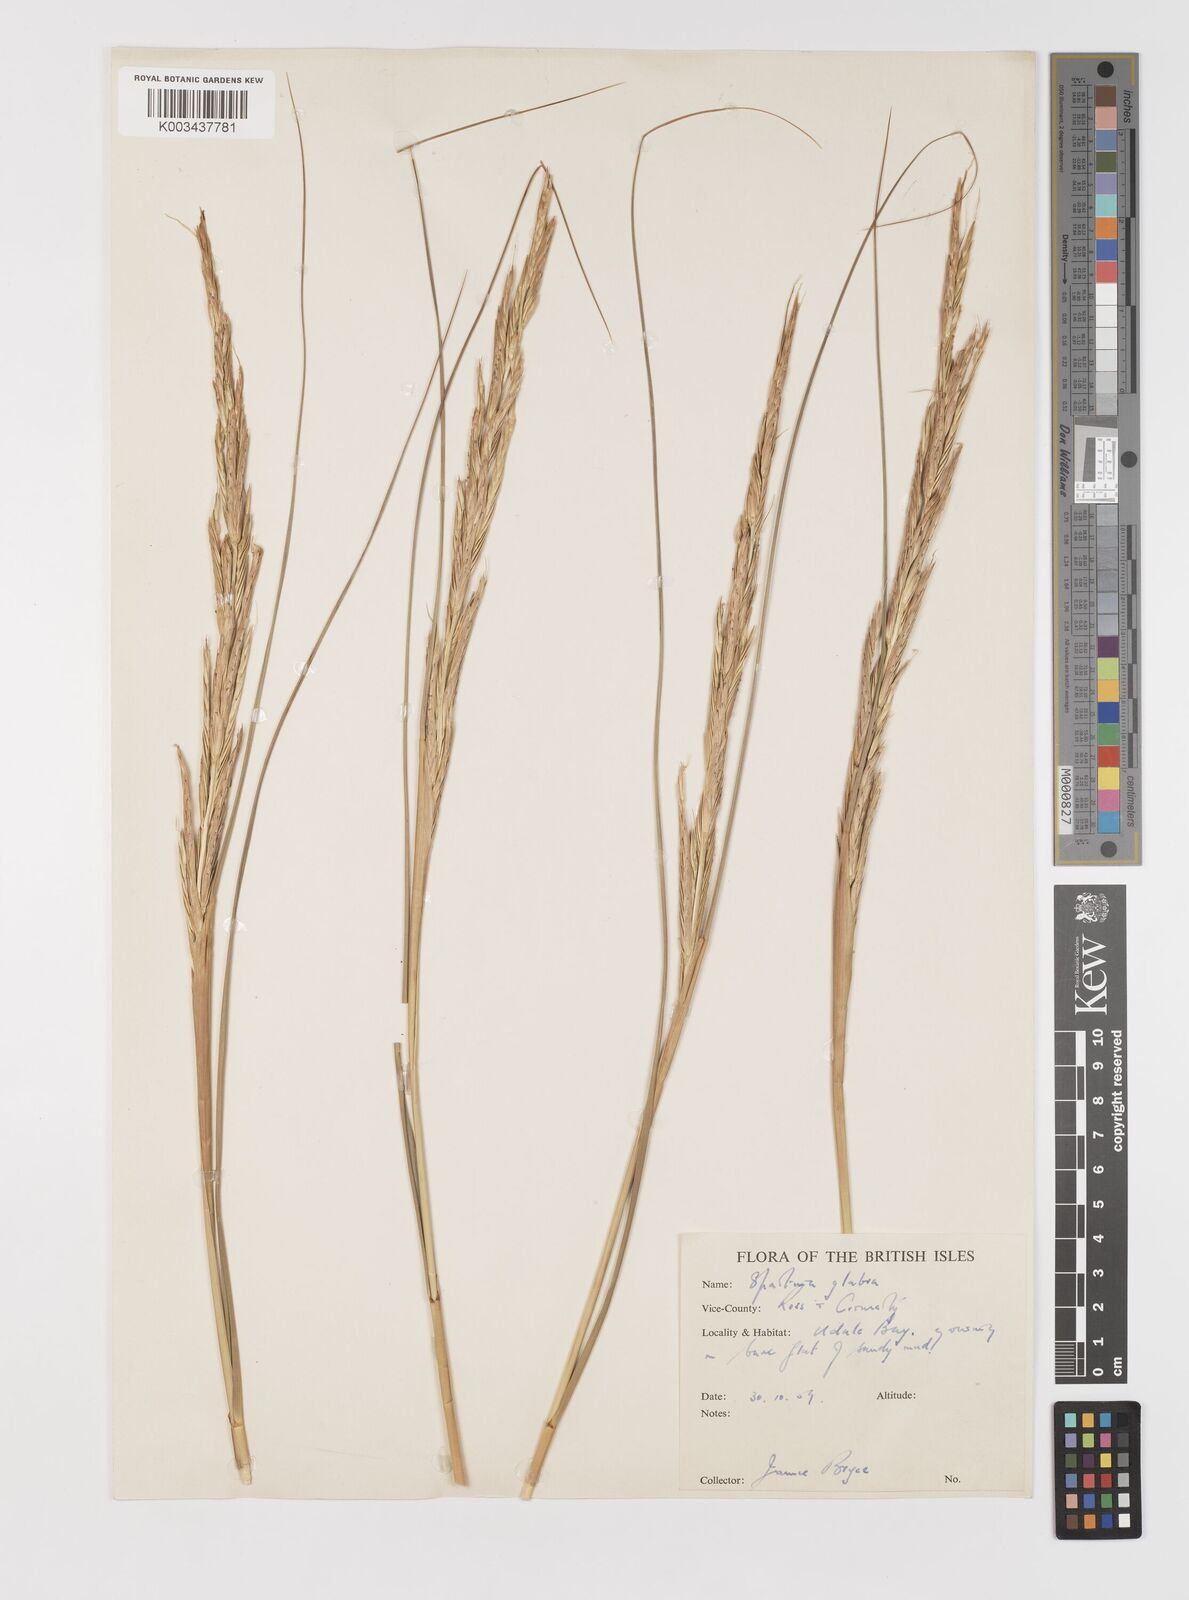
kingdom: Plantae
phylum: Tracheophyta
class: Liliopsida
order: Poales
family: Poaceae
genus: Sporobolus
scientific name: Sporobolus alterniflorus
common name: Atlantic cordgrass
